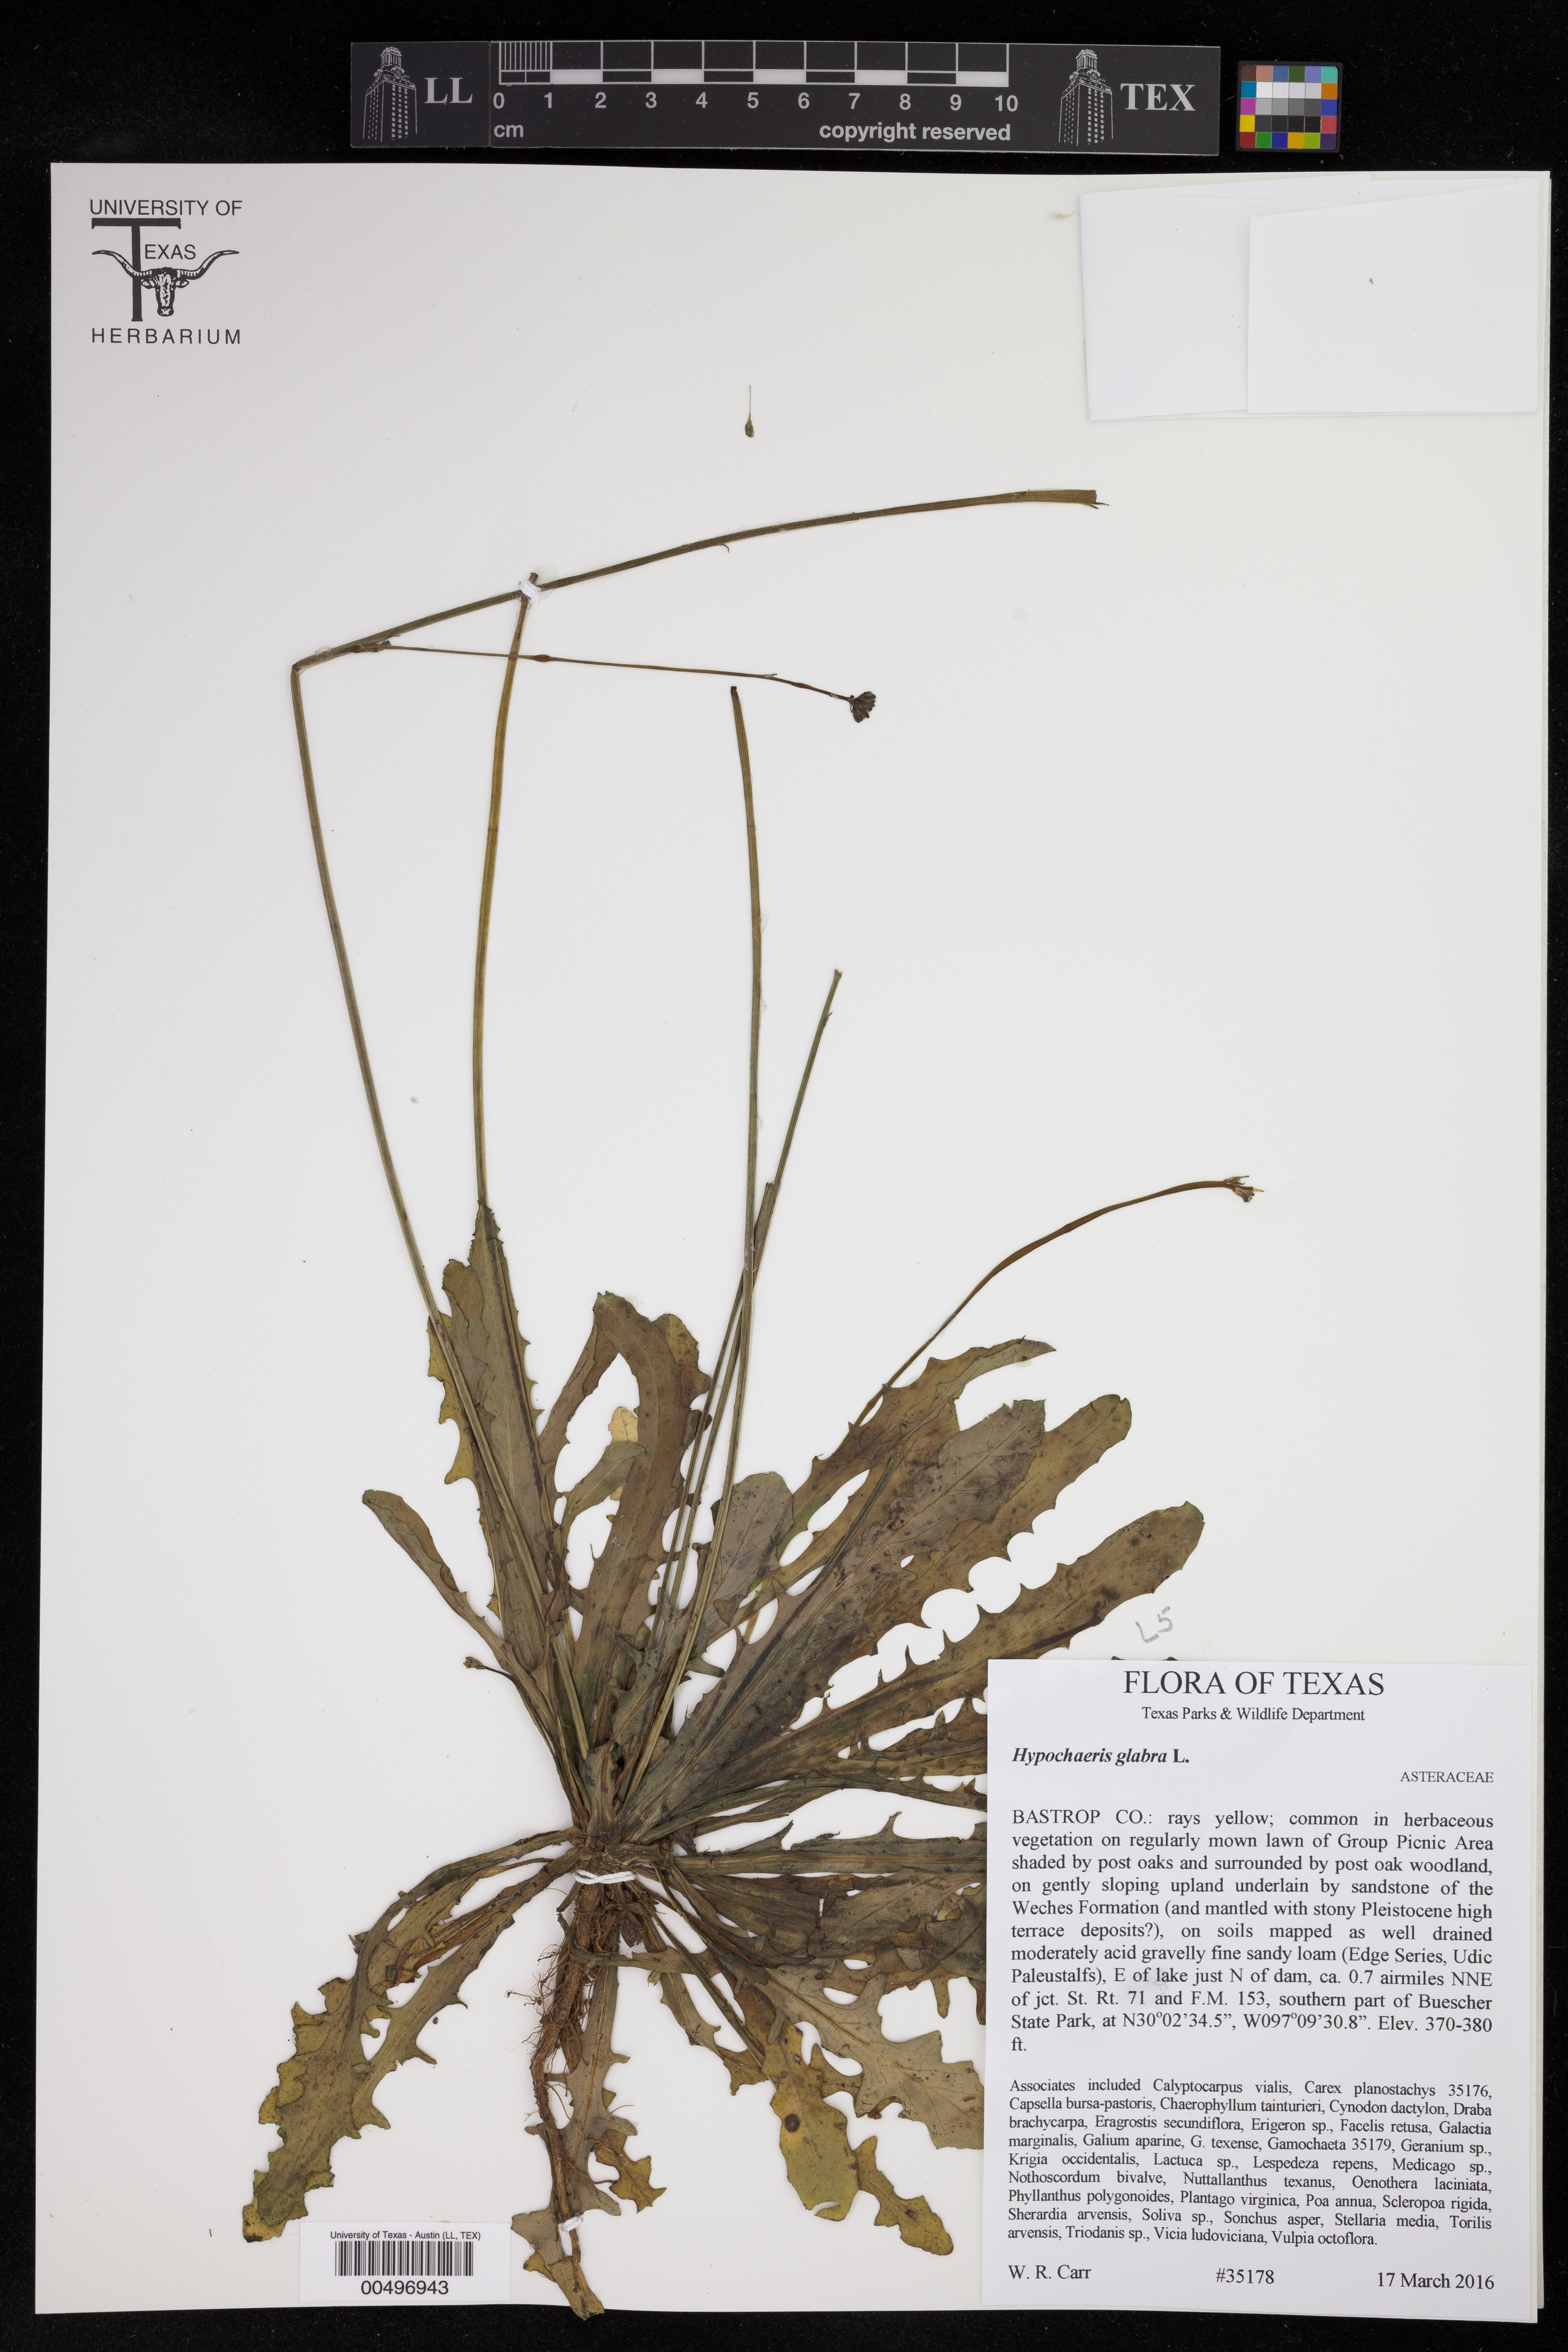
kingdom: Plantae
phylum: Tracheophyta
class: Magnoliopsida
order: Asterales
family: Asteraceae
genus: Hypochaeris
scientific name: Hypochaeris glabra
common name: Smooth catsear
